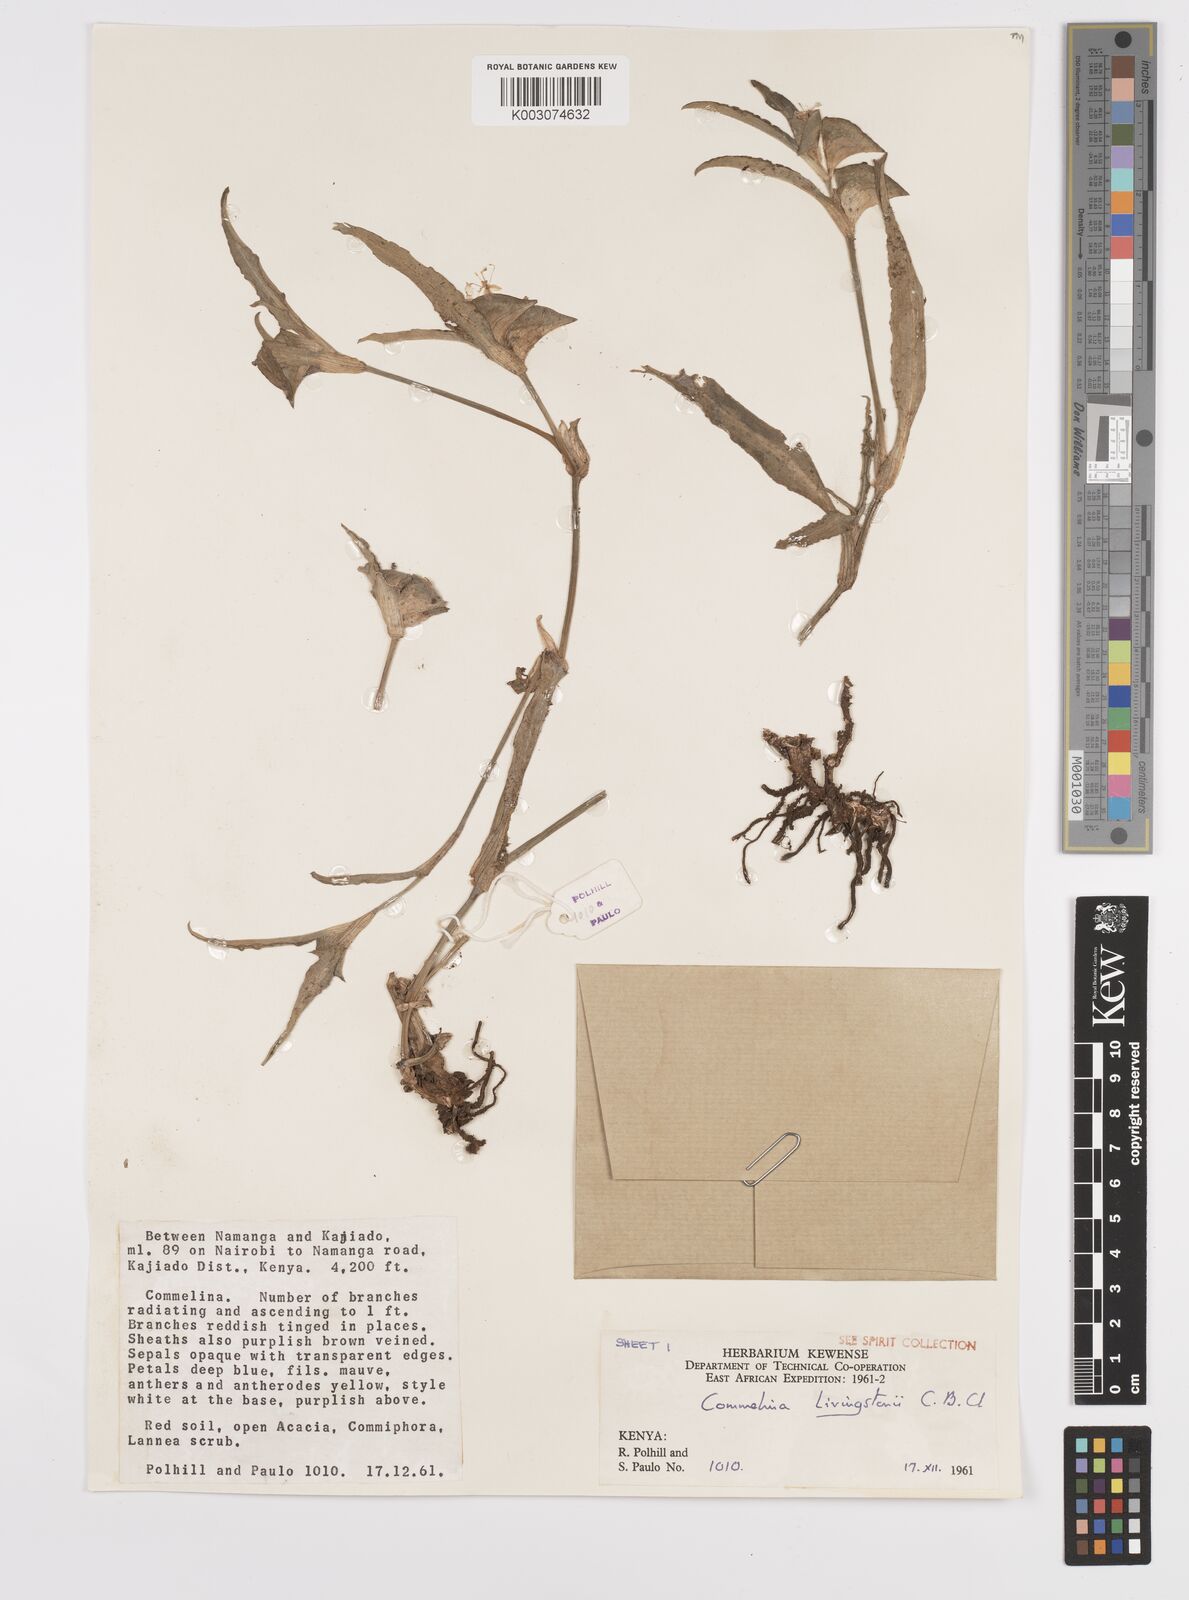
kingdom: Plantae
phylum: Tracheophyta
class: Liliopsida
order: Commelinales
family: Commelinaceae
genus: Commelina
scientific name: Commelina erecta
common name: Blousel blommetjie
